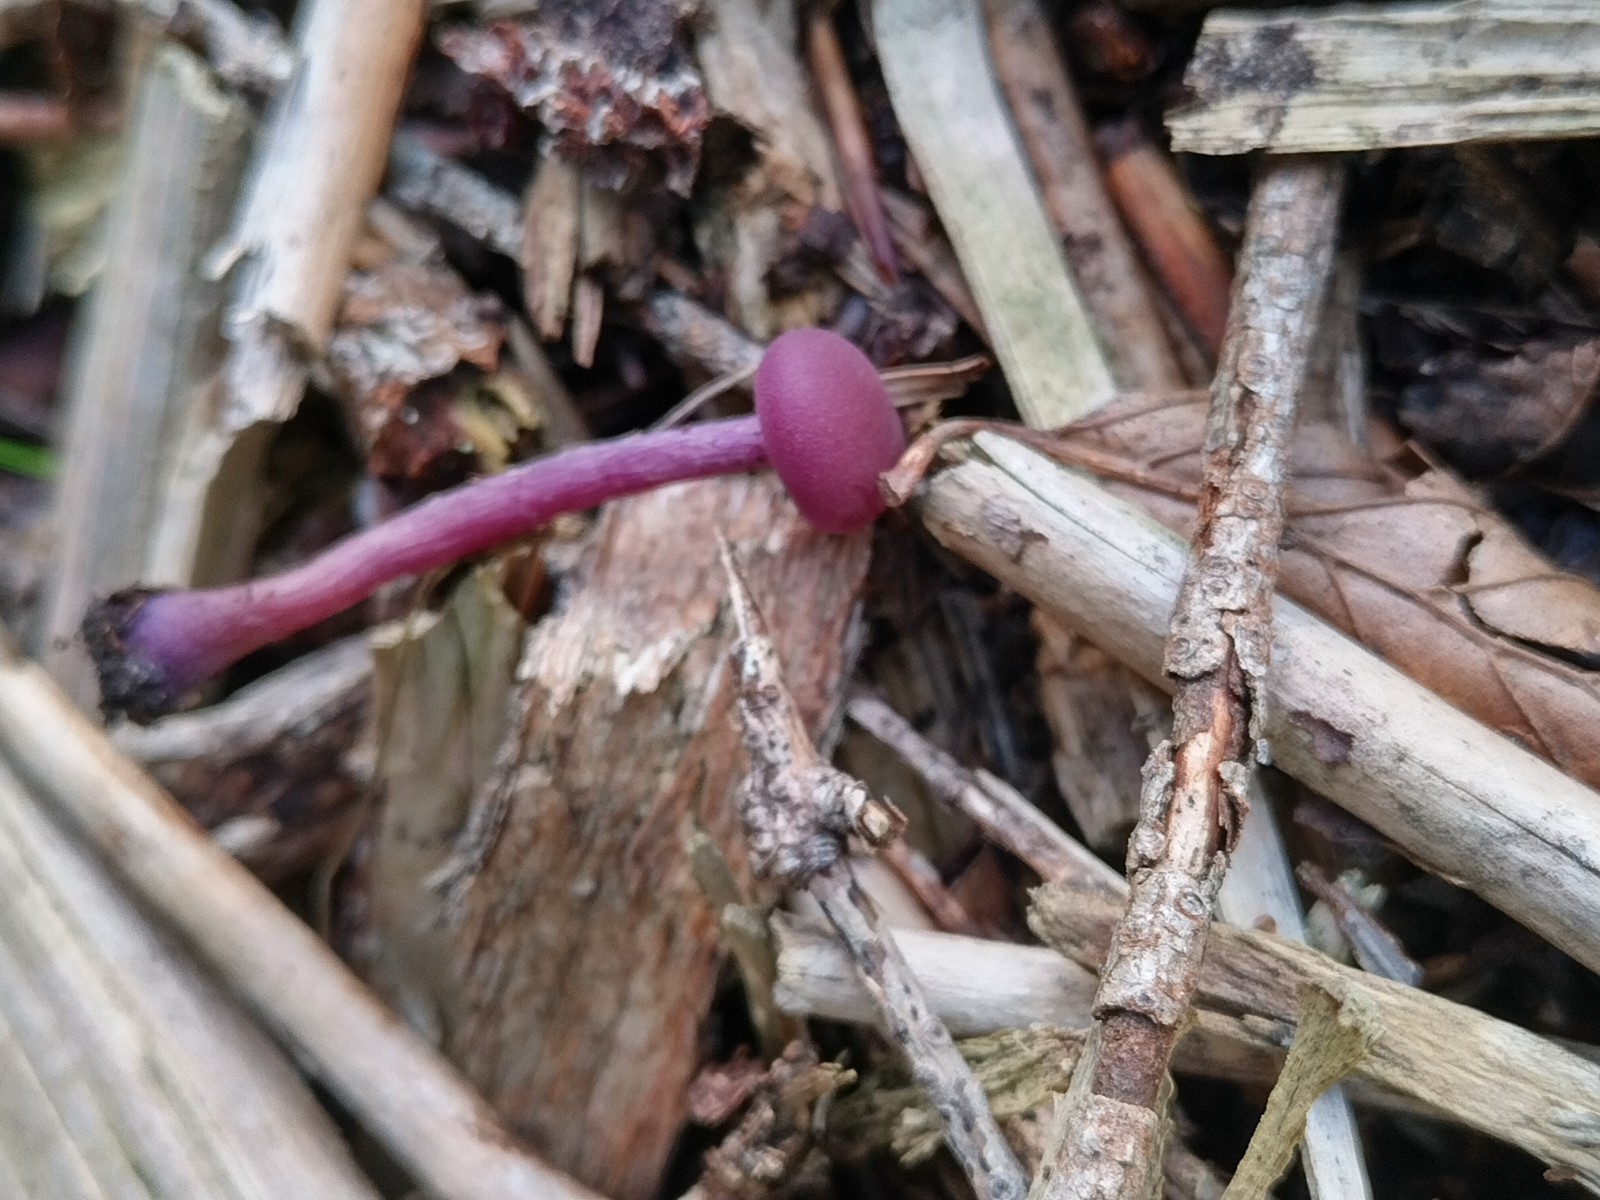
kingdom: Fungi
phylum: Basidiomycota
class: Agaricomycetes
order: Agaricales
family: Hydnangiaceae
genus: Laccaria
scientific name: Laccaria amethystina
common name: violet ametysthat
